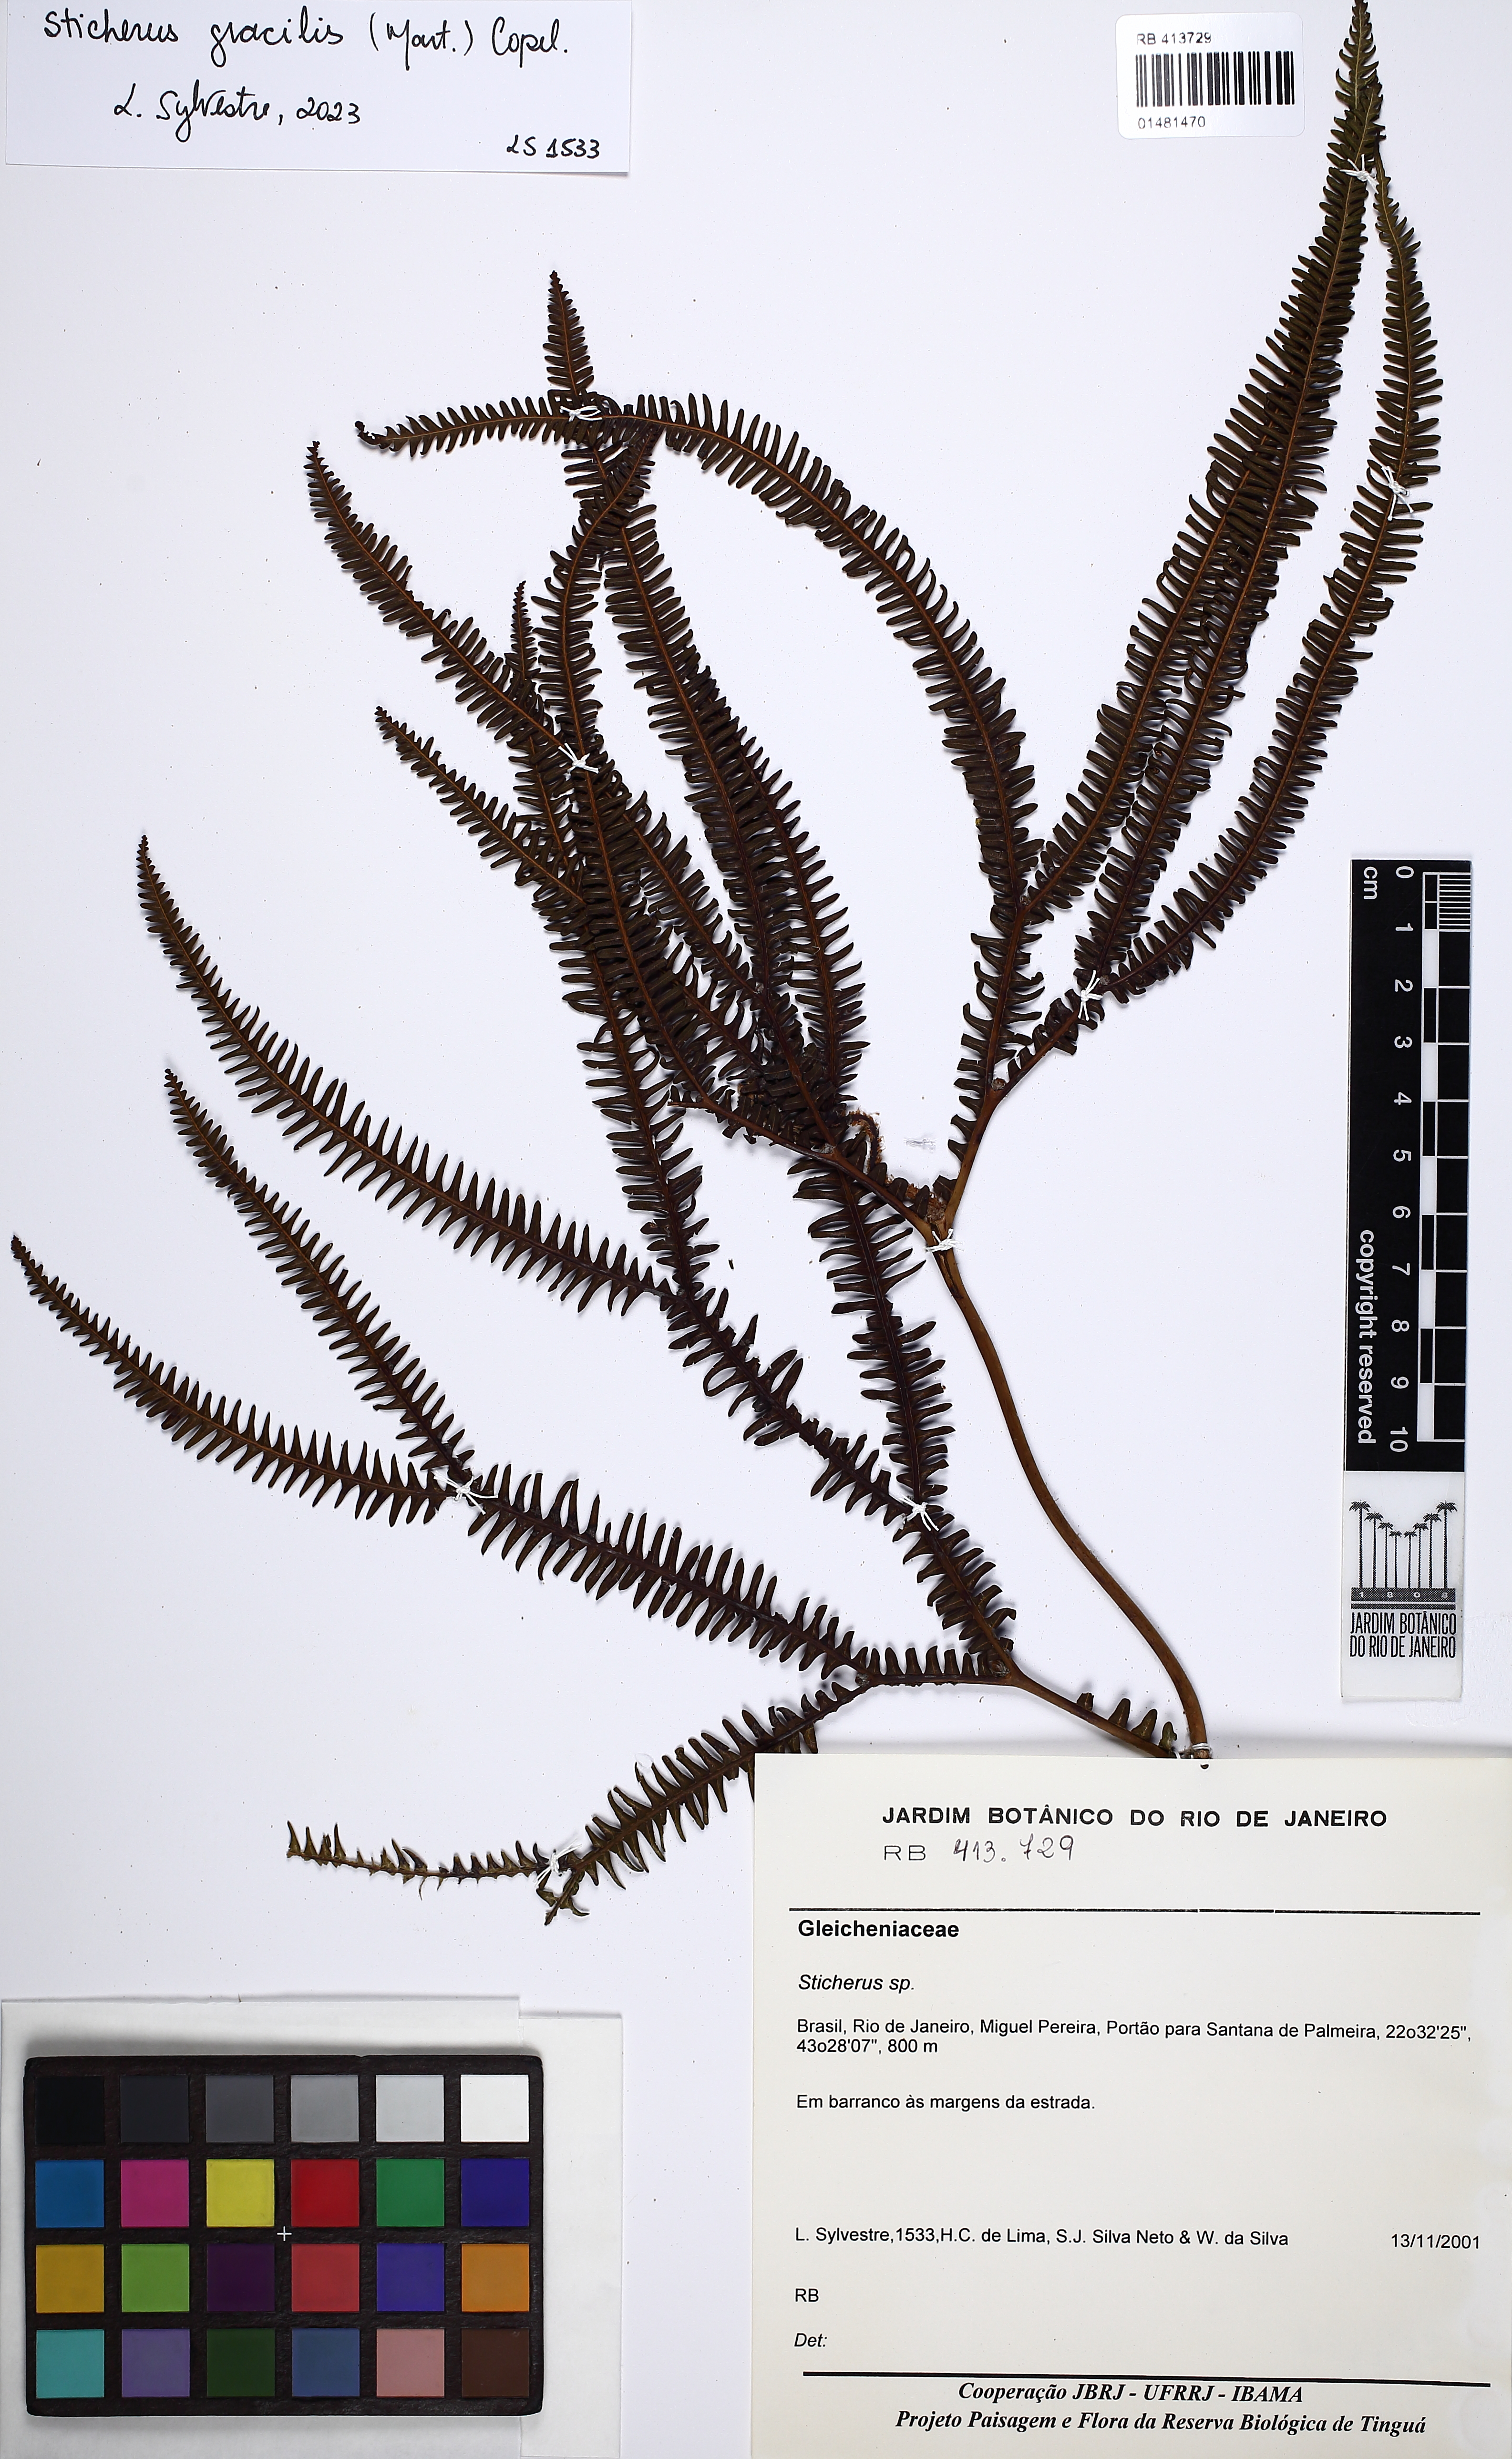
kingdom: Plantae
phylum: Tracheophyta
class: Polypodiopsida
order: Gleicheniales
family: Gleicheniaceae
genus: Sticherus
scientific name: Sticherus gracilis
